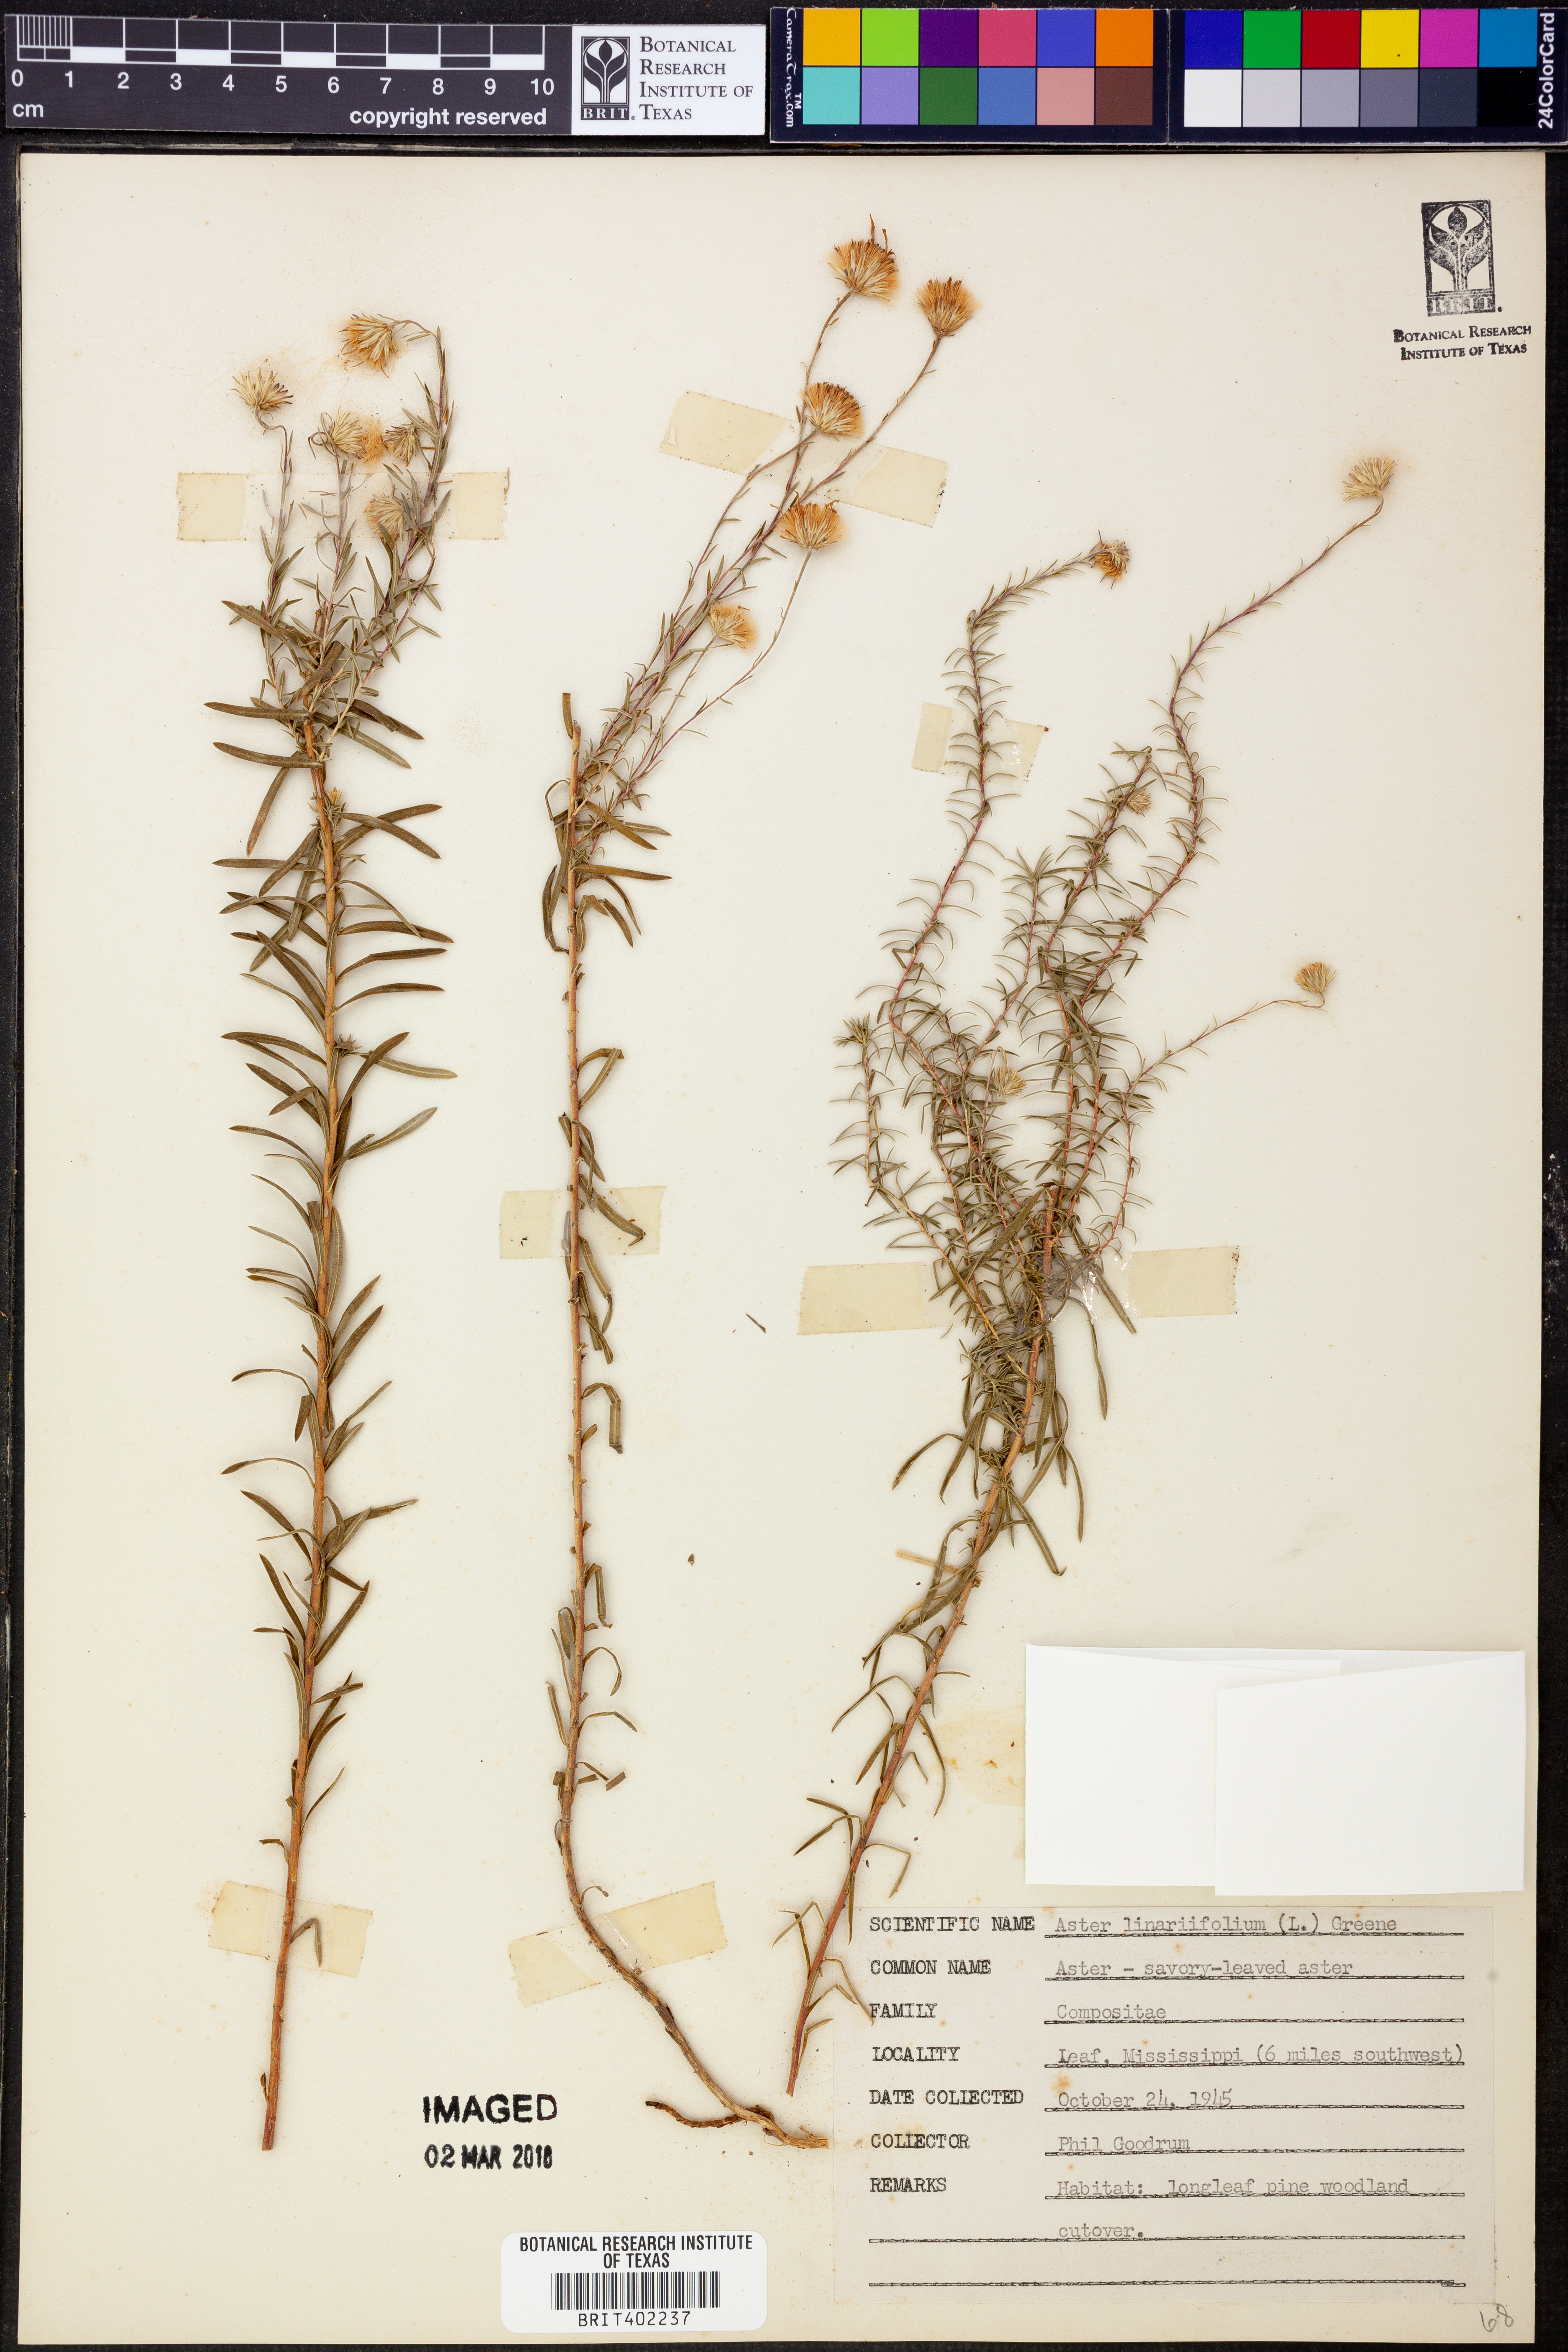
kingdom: Plantae
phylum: Tracheophyta
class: Magnoliopsida
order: Asterales
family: Asteraceae
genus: Ionactis
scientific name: Ionactis linariifolia
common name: Flax-leaf aster
